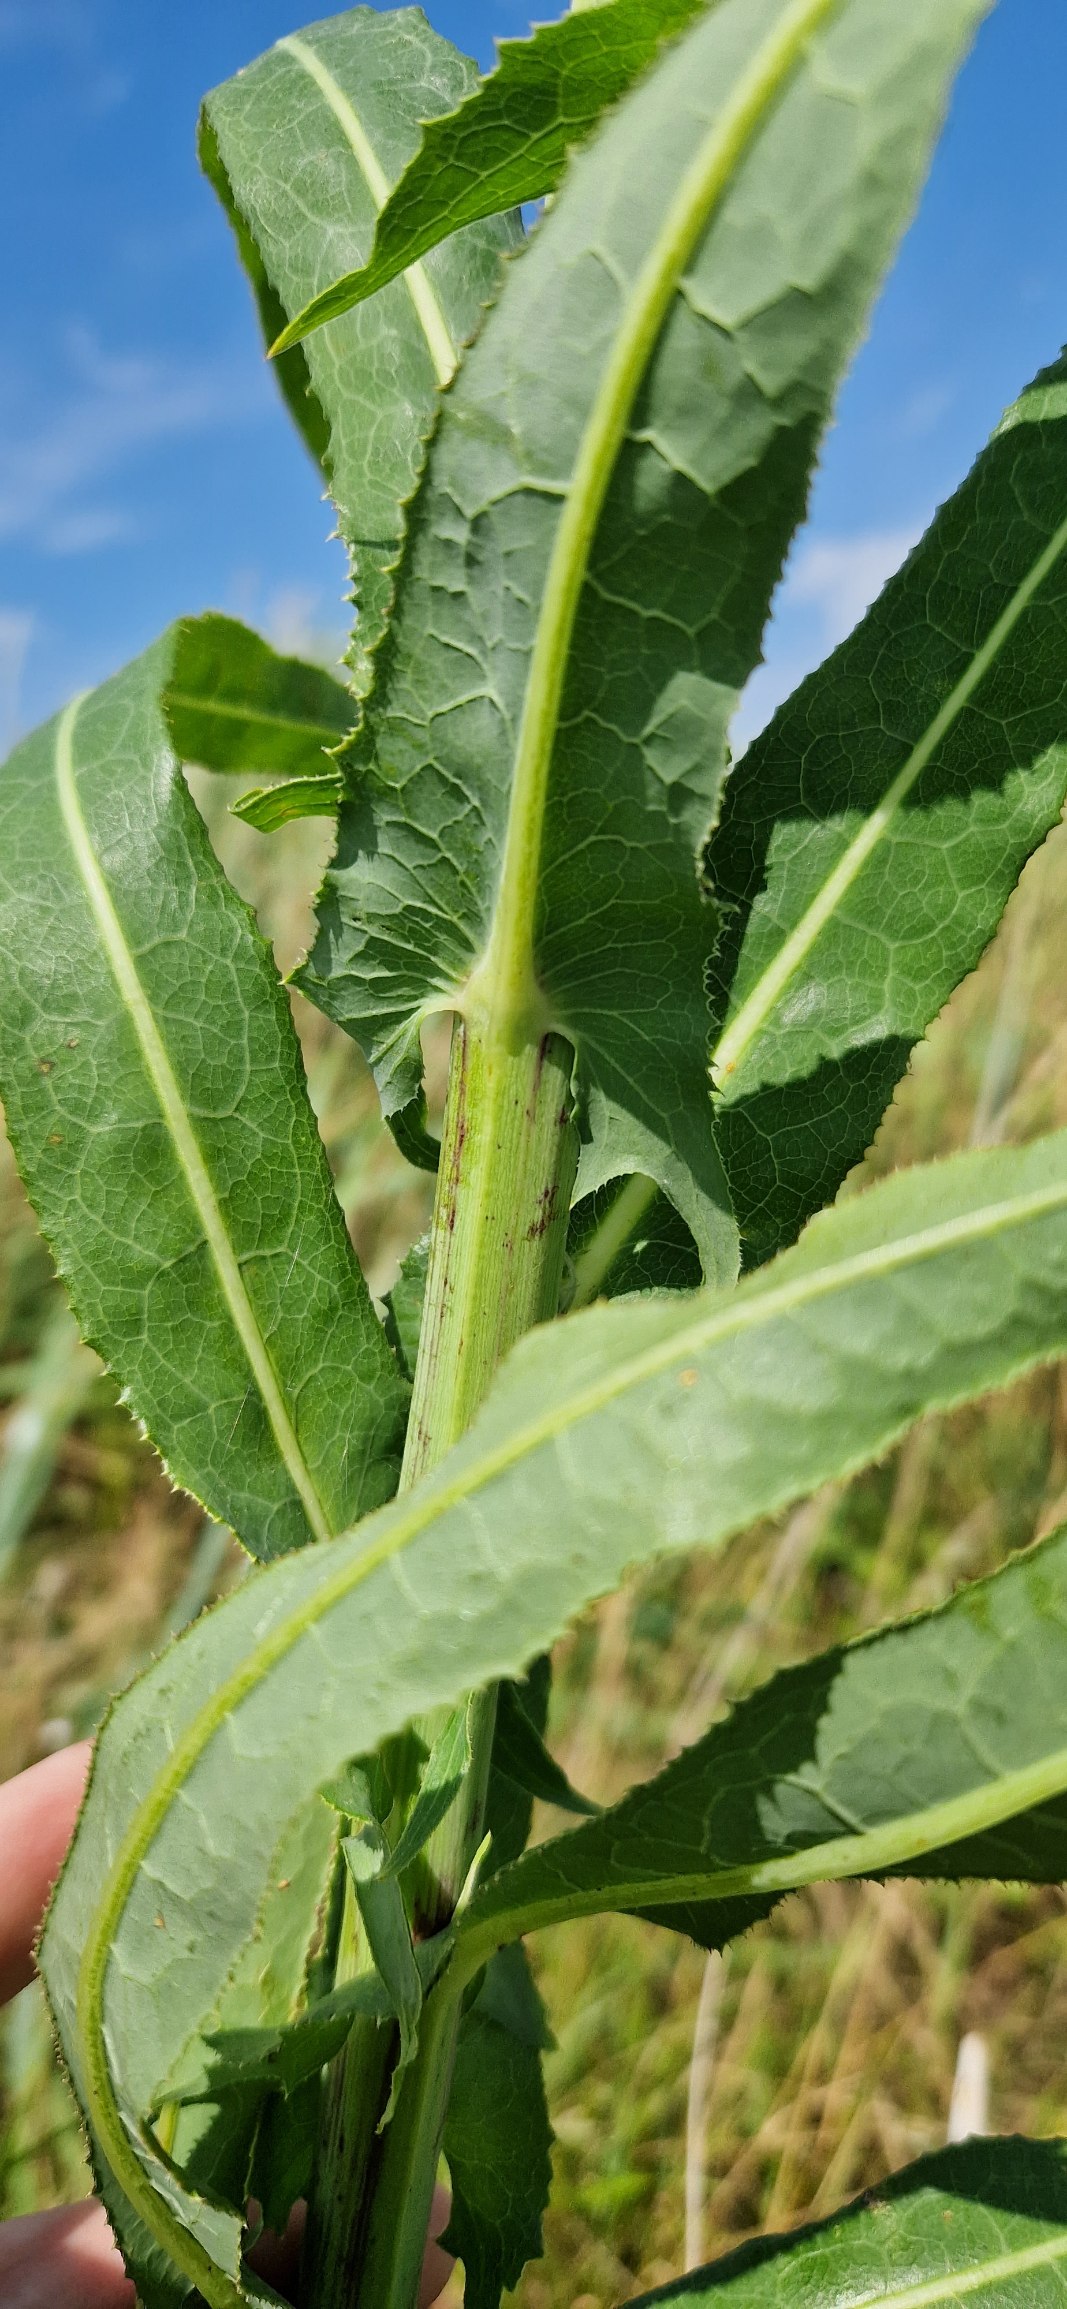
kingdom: Plantae
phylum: Tracheophyta
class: Magnoliopsida
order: Asterales
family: Asteraceae
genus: Sonchus
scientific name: Sonchus palustris
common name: Kær-svinemælk
